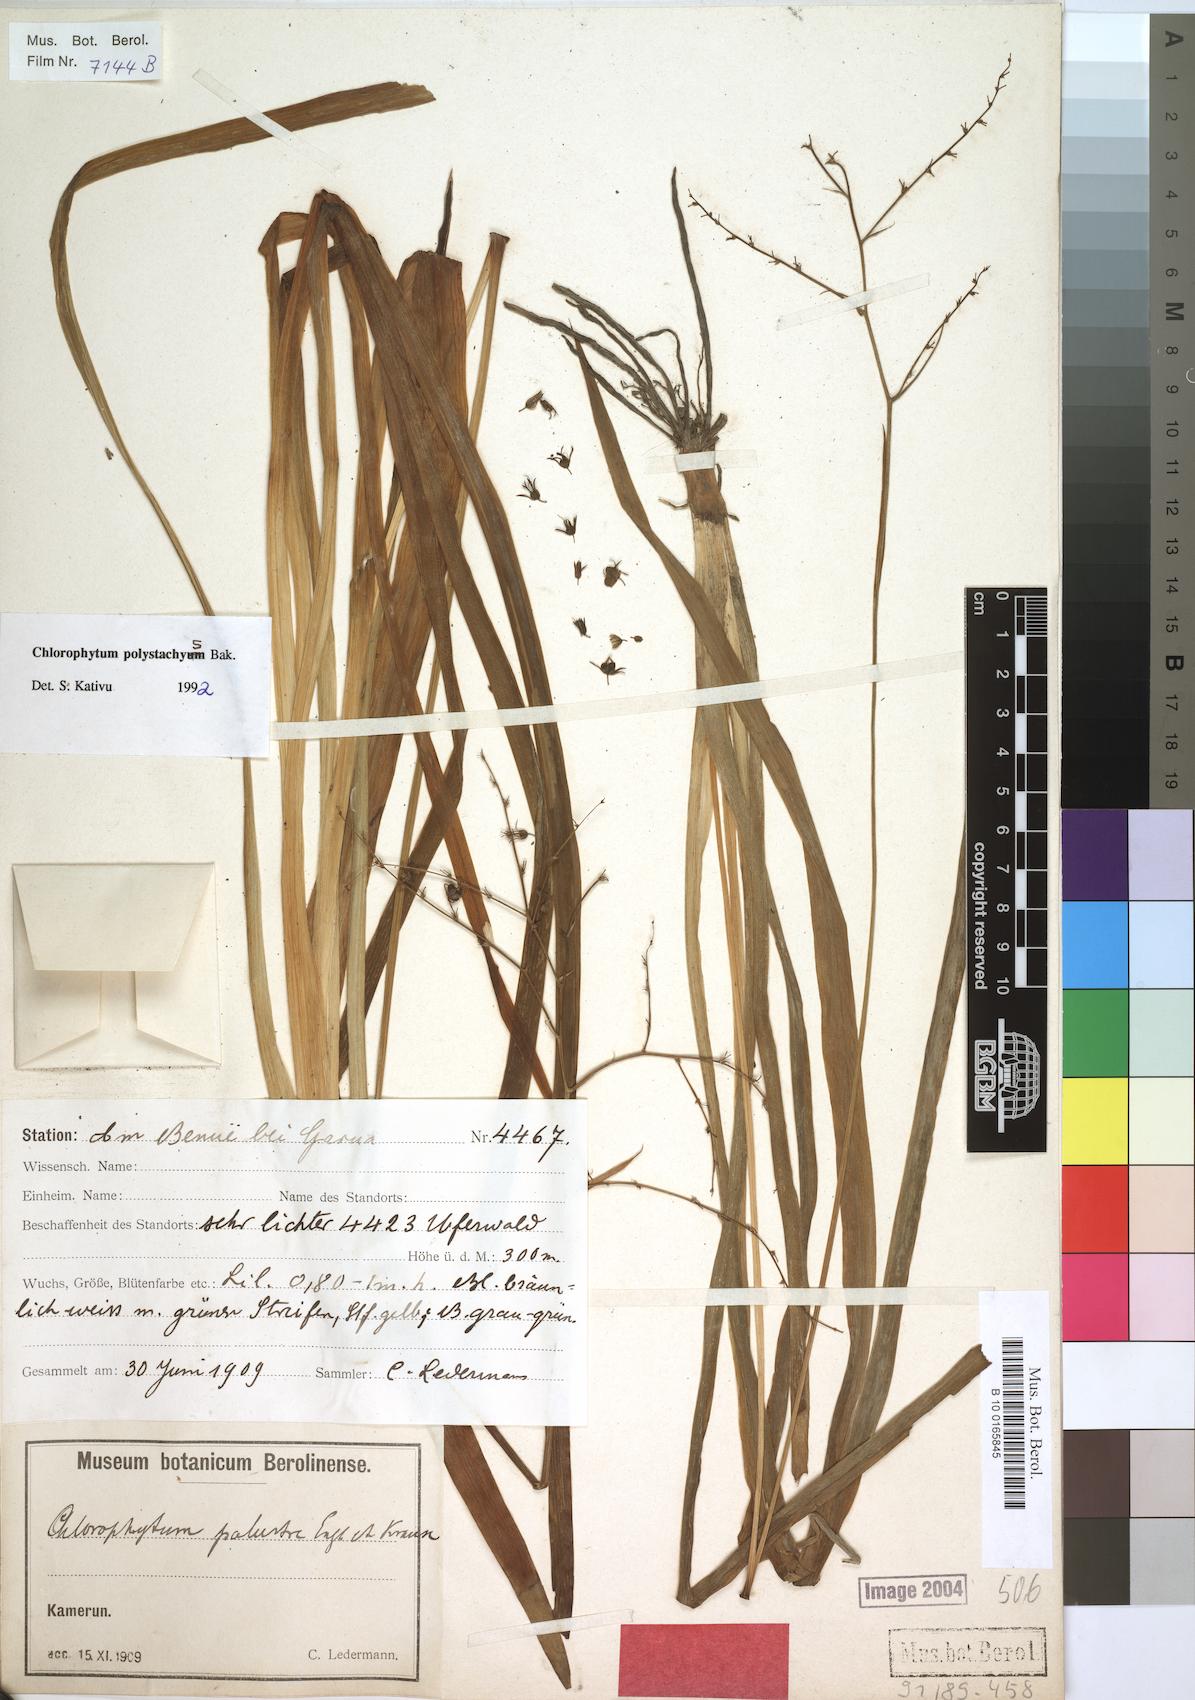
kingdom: Plantae
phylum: Tracheophyta
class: Liliopsida
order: Asparagales
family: Asparagaceae
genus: Chlorophytum
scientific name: Chlorophytum polystachys
